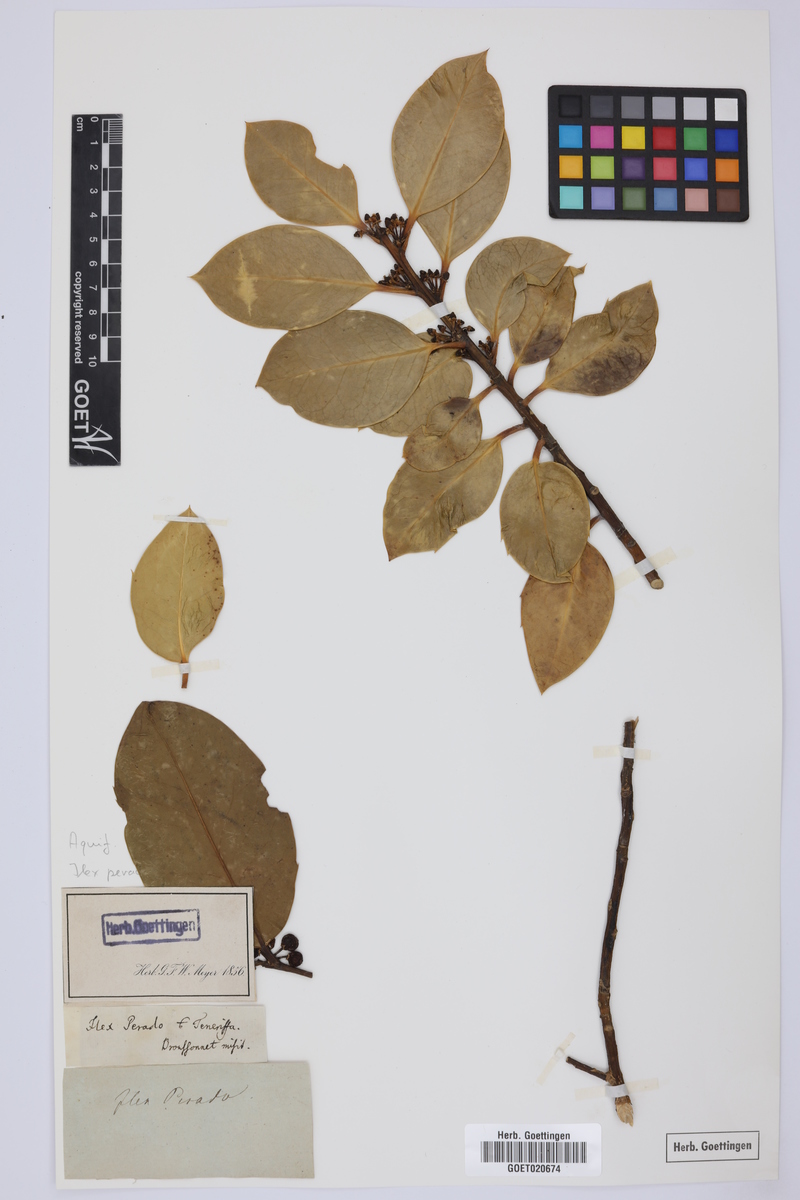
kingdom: Plantae
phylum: Tracheophyta
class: Magnoliopsida
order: Aquifoliales
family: Aquifoliaceae
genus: Ilex
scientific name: Ilex perado
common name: Madeira holly
